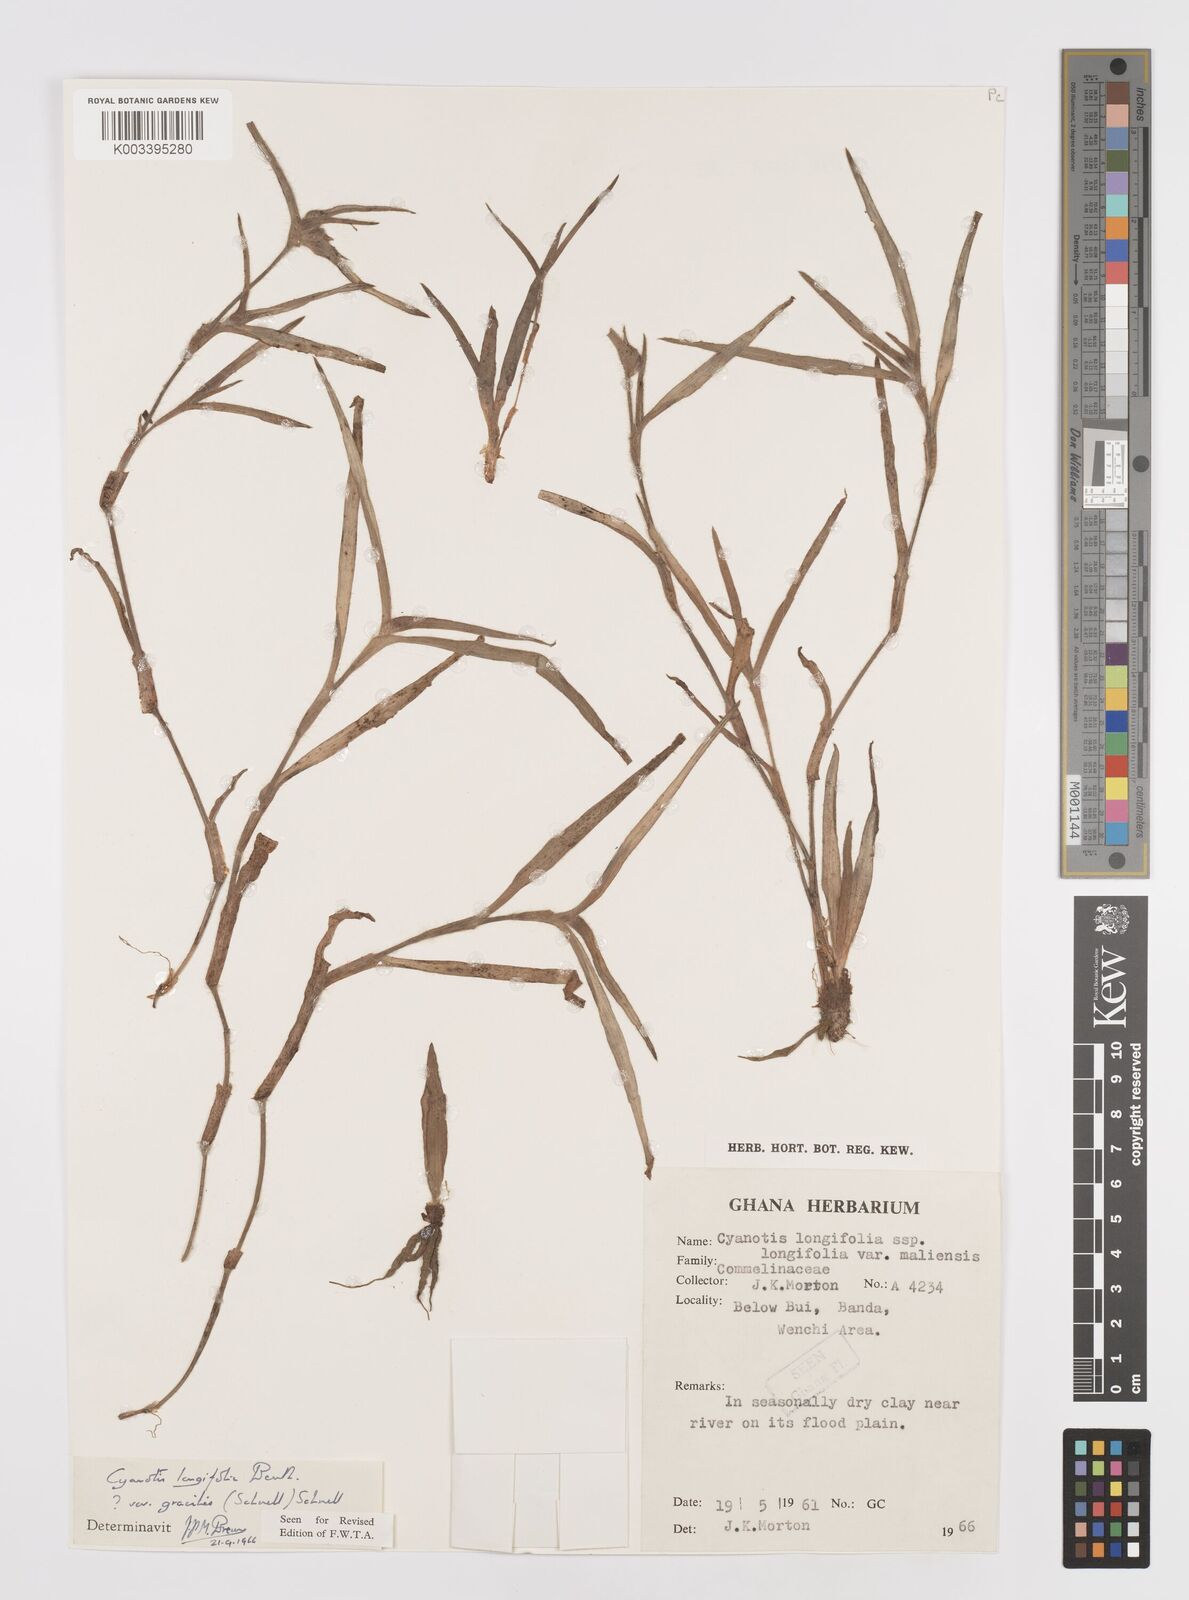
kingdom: Plantae
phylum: Tracheophyta
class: Liliopsida
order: Commelinales
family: Commelinaceae
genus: Cyanotis
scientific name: Cyanotis longifolia
